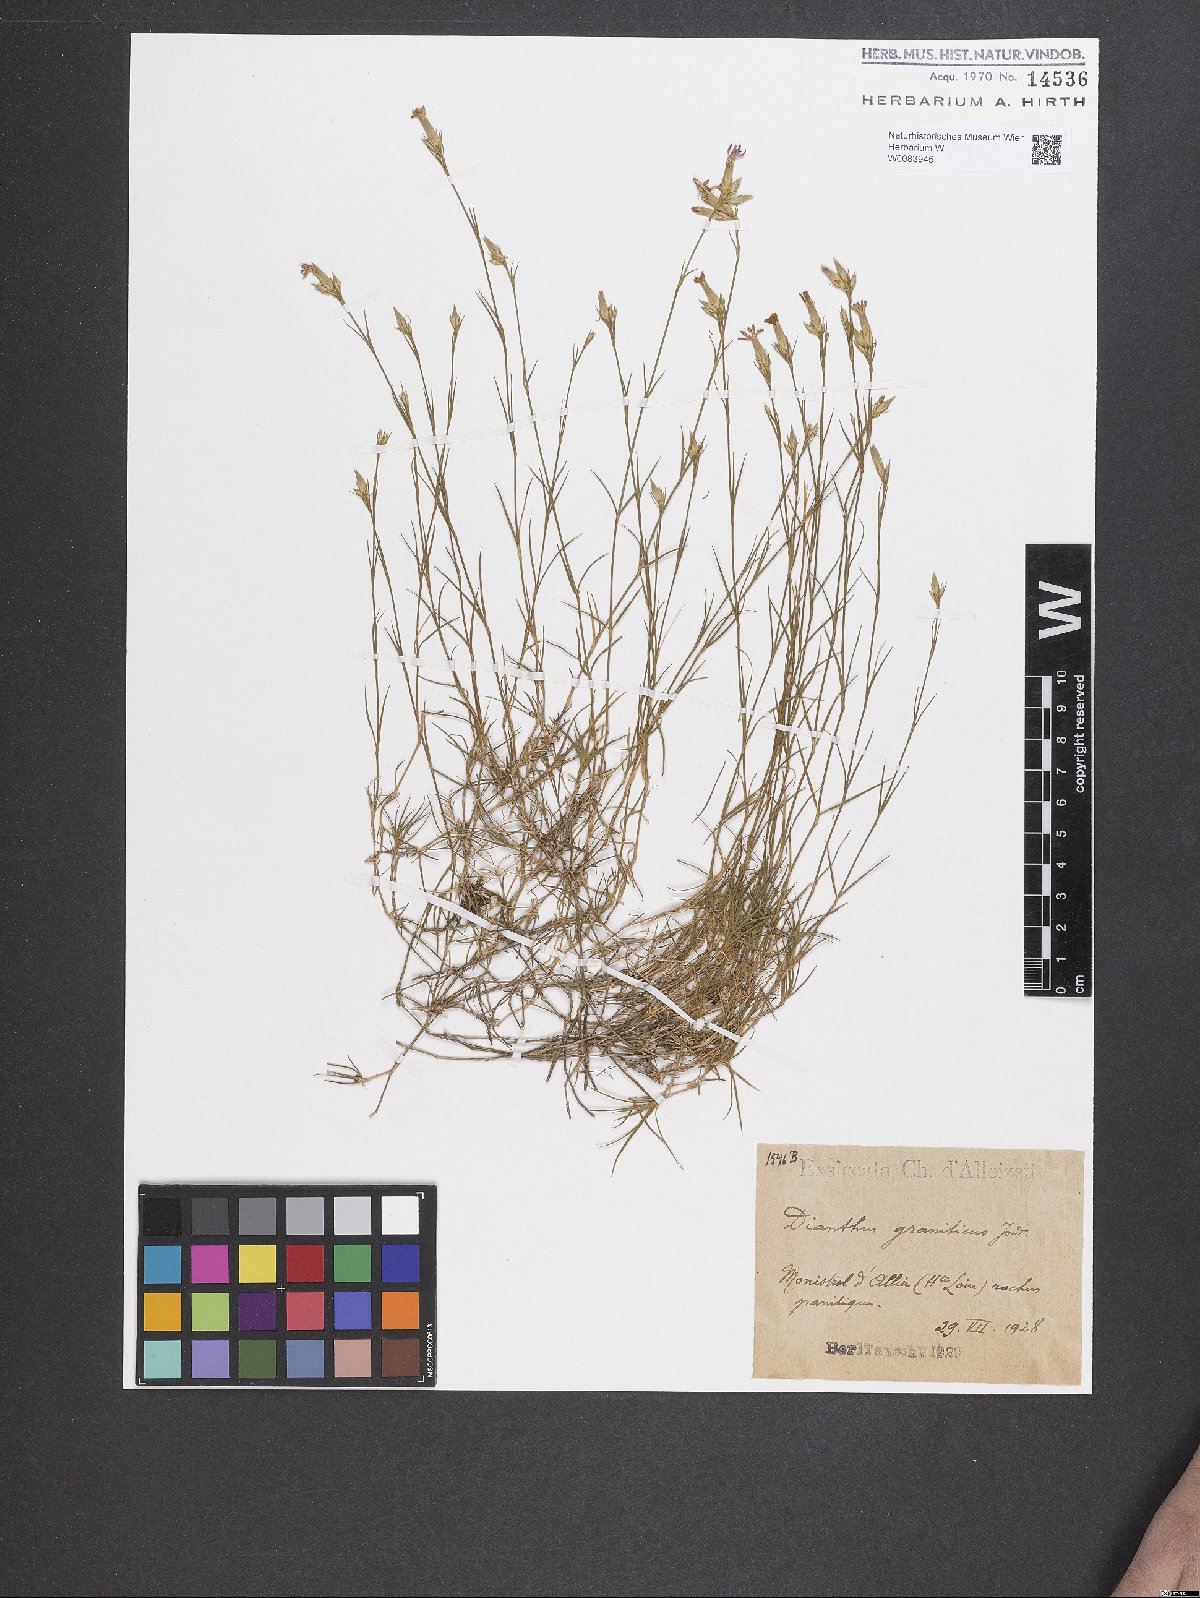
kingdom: Plantae
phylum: Tracheophyta
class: Magnoliopsida
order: Caryophyllales
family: Caryophyllaceae
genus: Dianthus
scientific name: Dianthus graniticus
